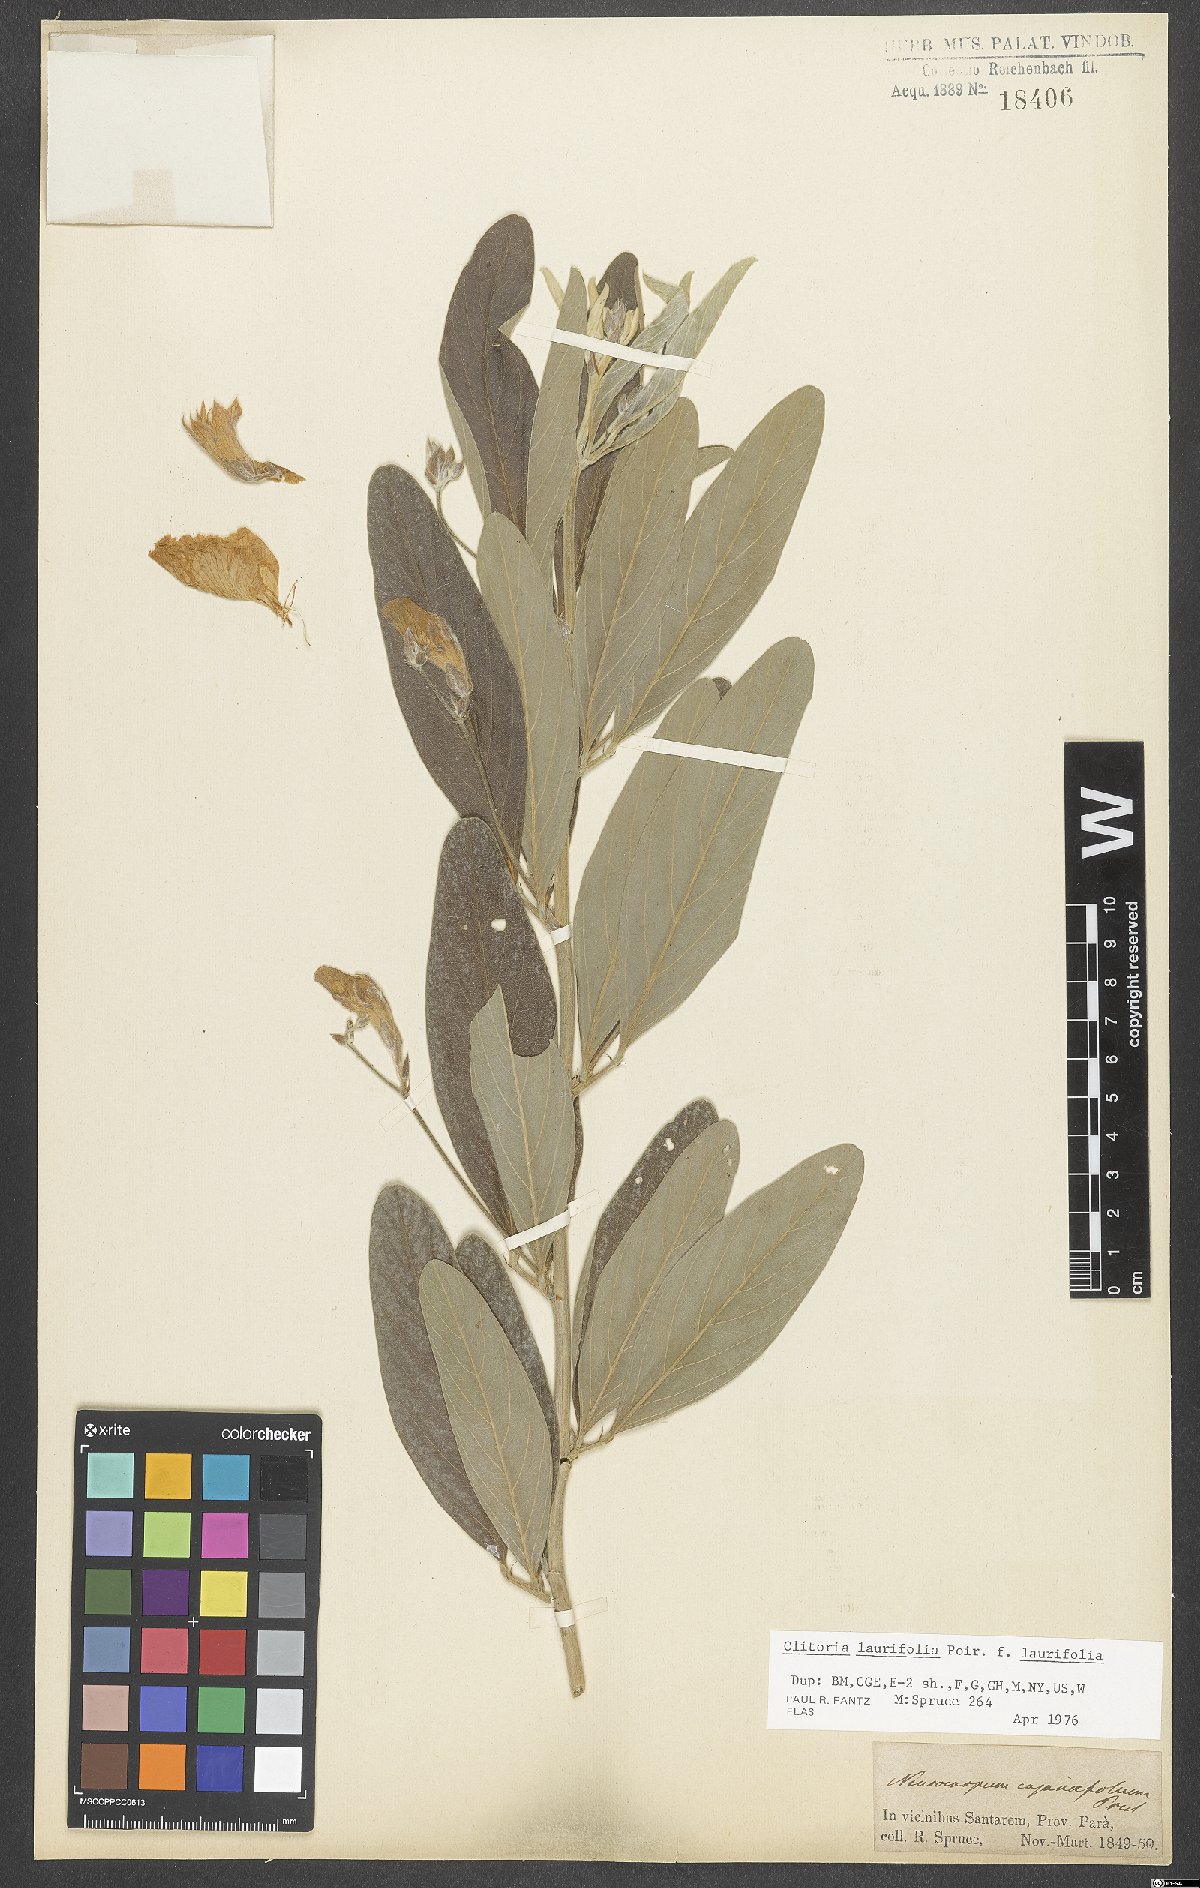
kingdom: Plantae
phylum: Tracheophyta
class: Magnoliopsida
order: Fabales
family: Fabaceae
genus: Clitoria
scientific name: Clitoria laurifolia
